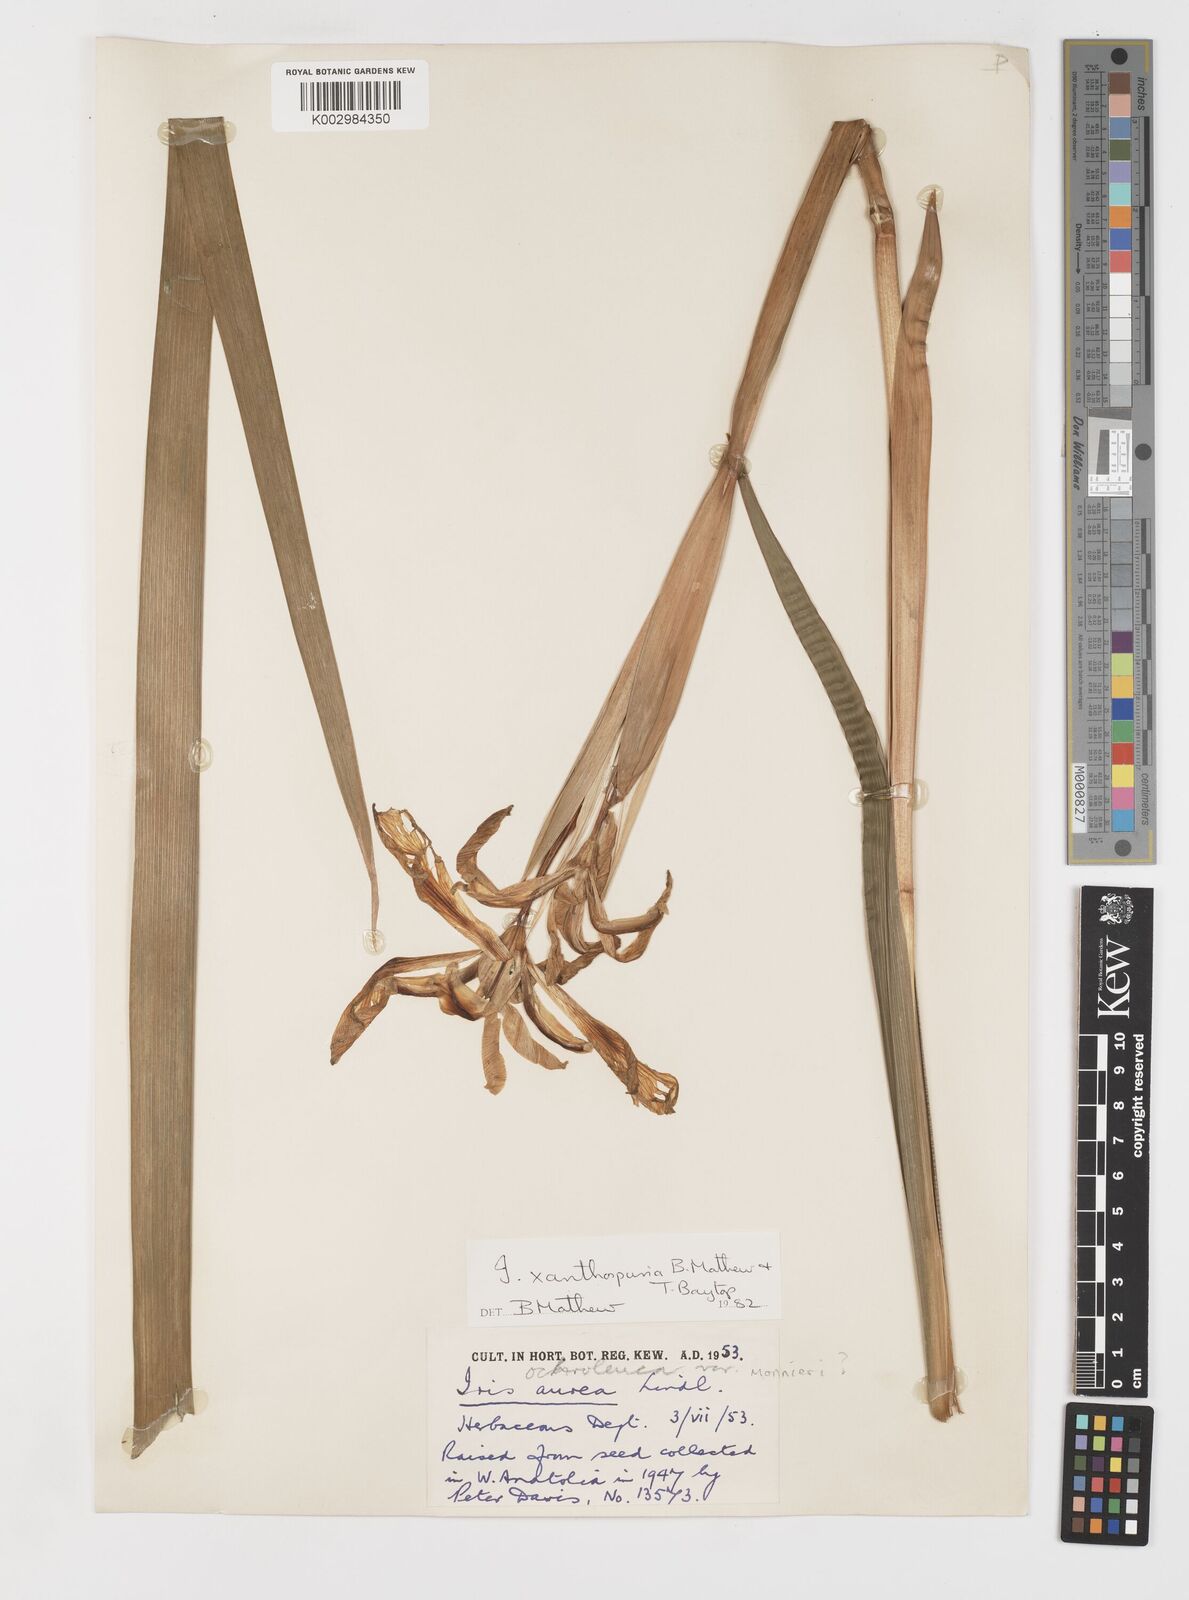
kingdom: Plantae
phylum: Tracheophyta
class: Liliopsida
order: Asparagales
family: Iridaceae
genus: Iris
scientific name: Iris spuria
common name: Blue iris
